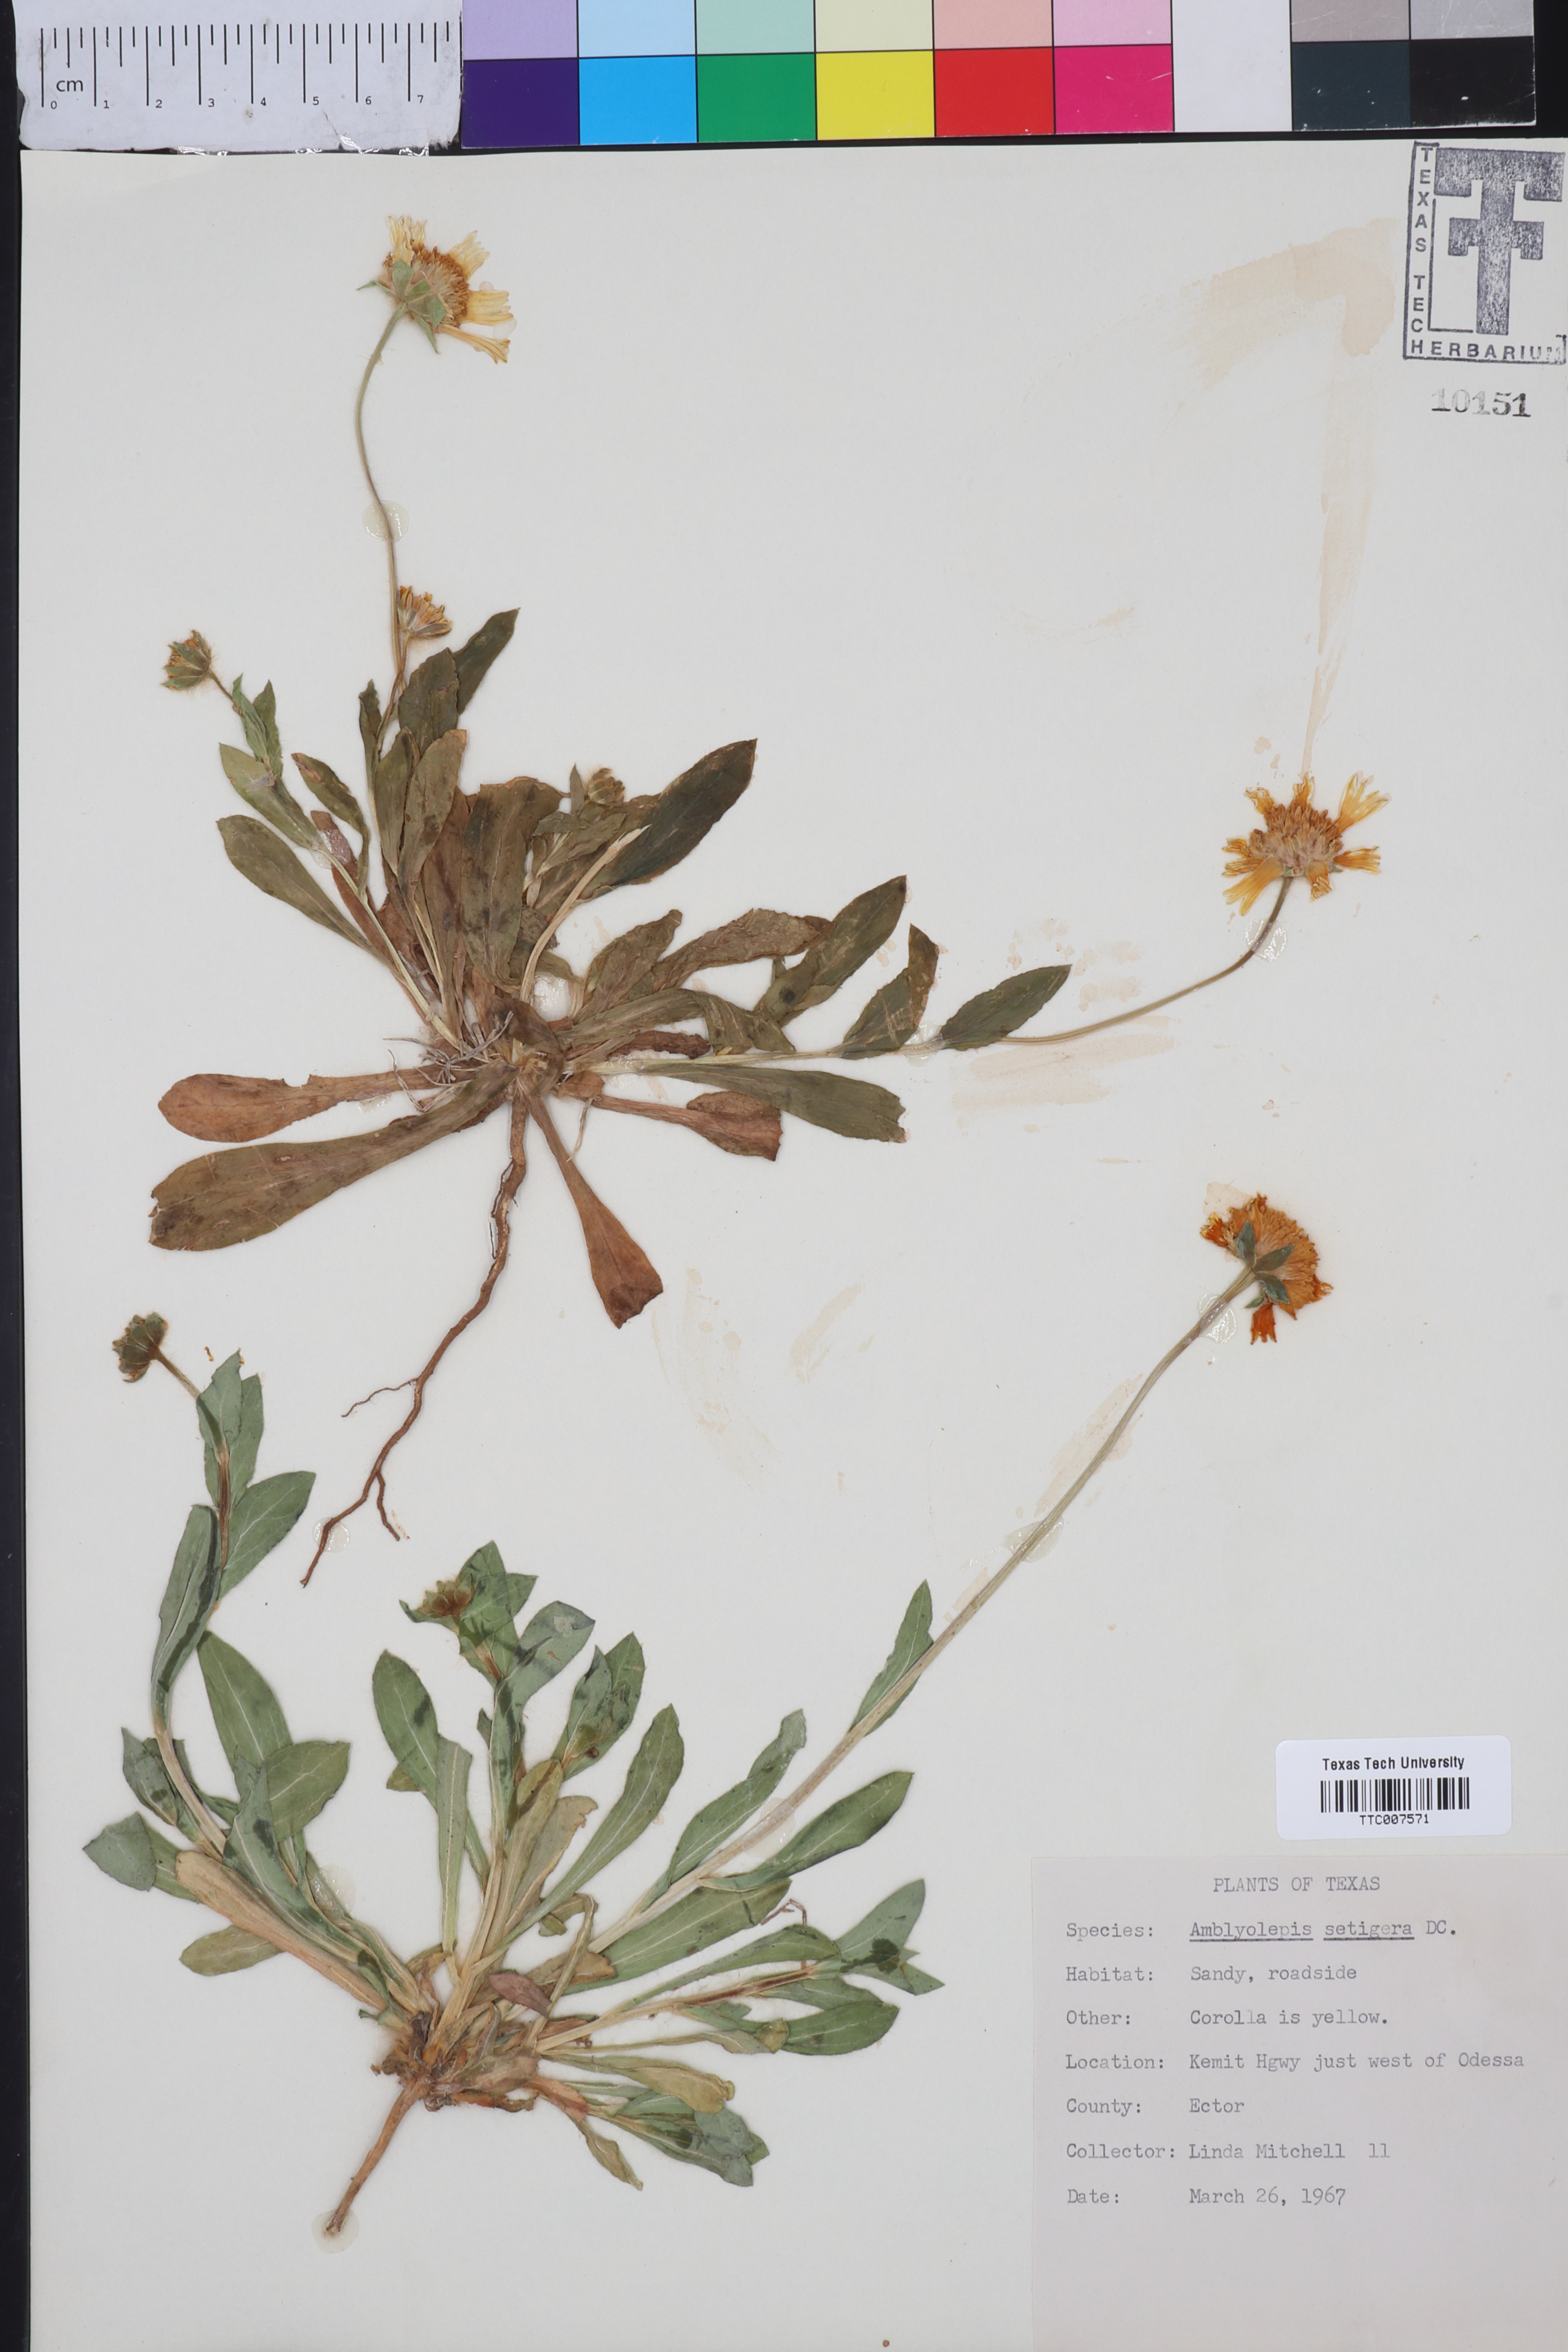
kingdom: Plantae
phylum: Tracheophyta
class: Magnoliopsida
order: Asterales
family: Asteraceae
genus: Amblyolepis
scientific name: Amblyolepis setigera
